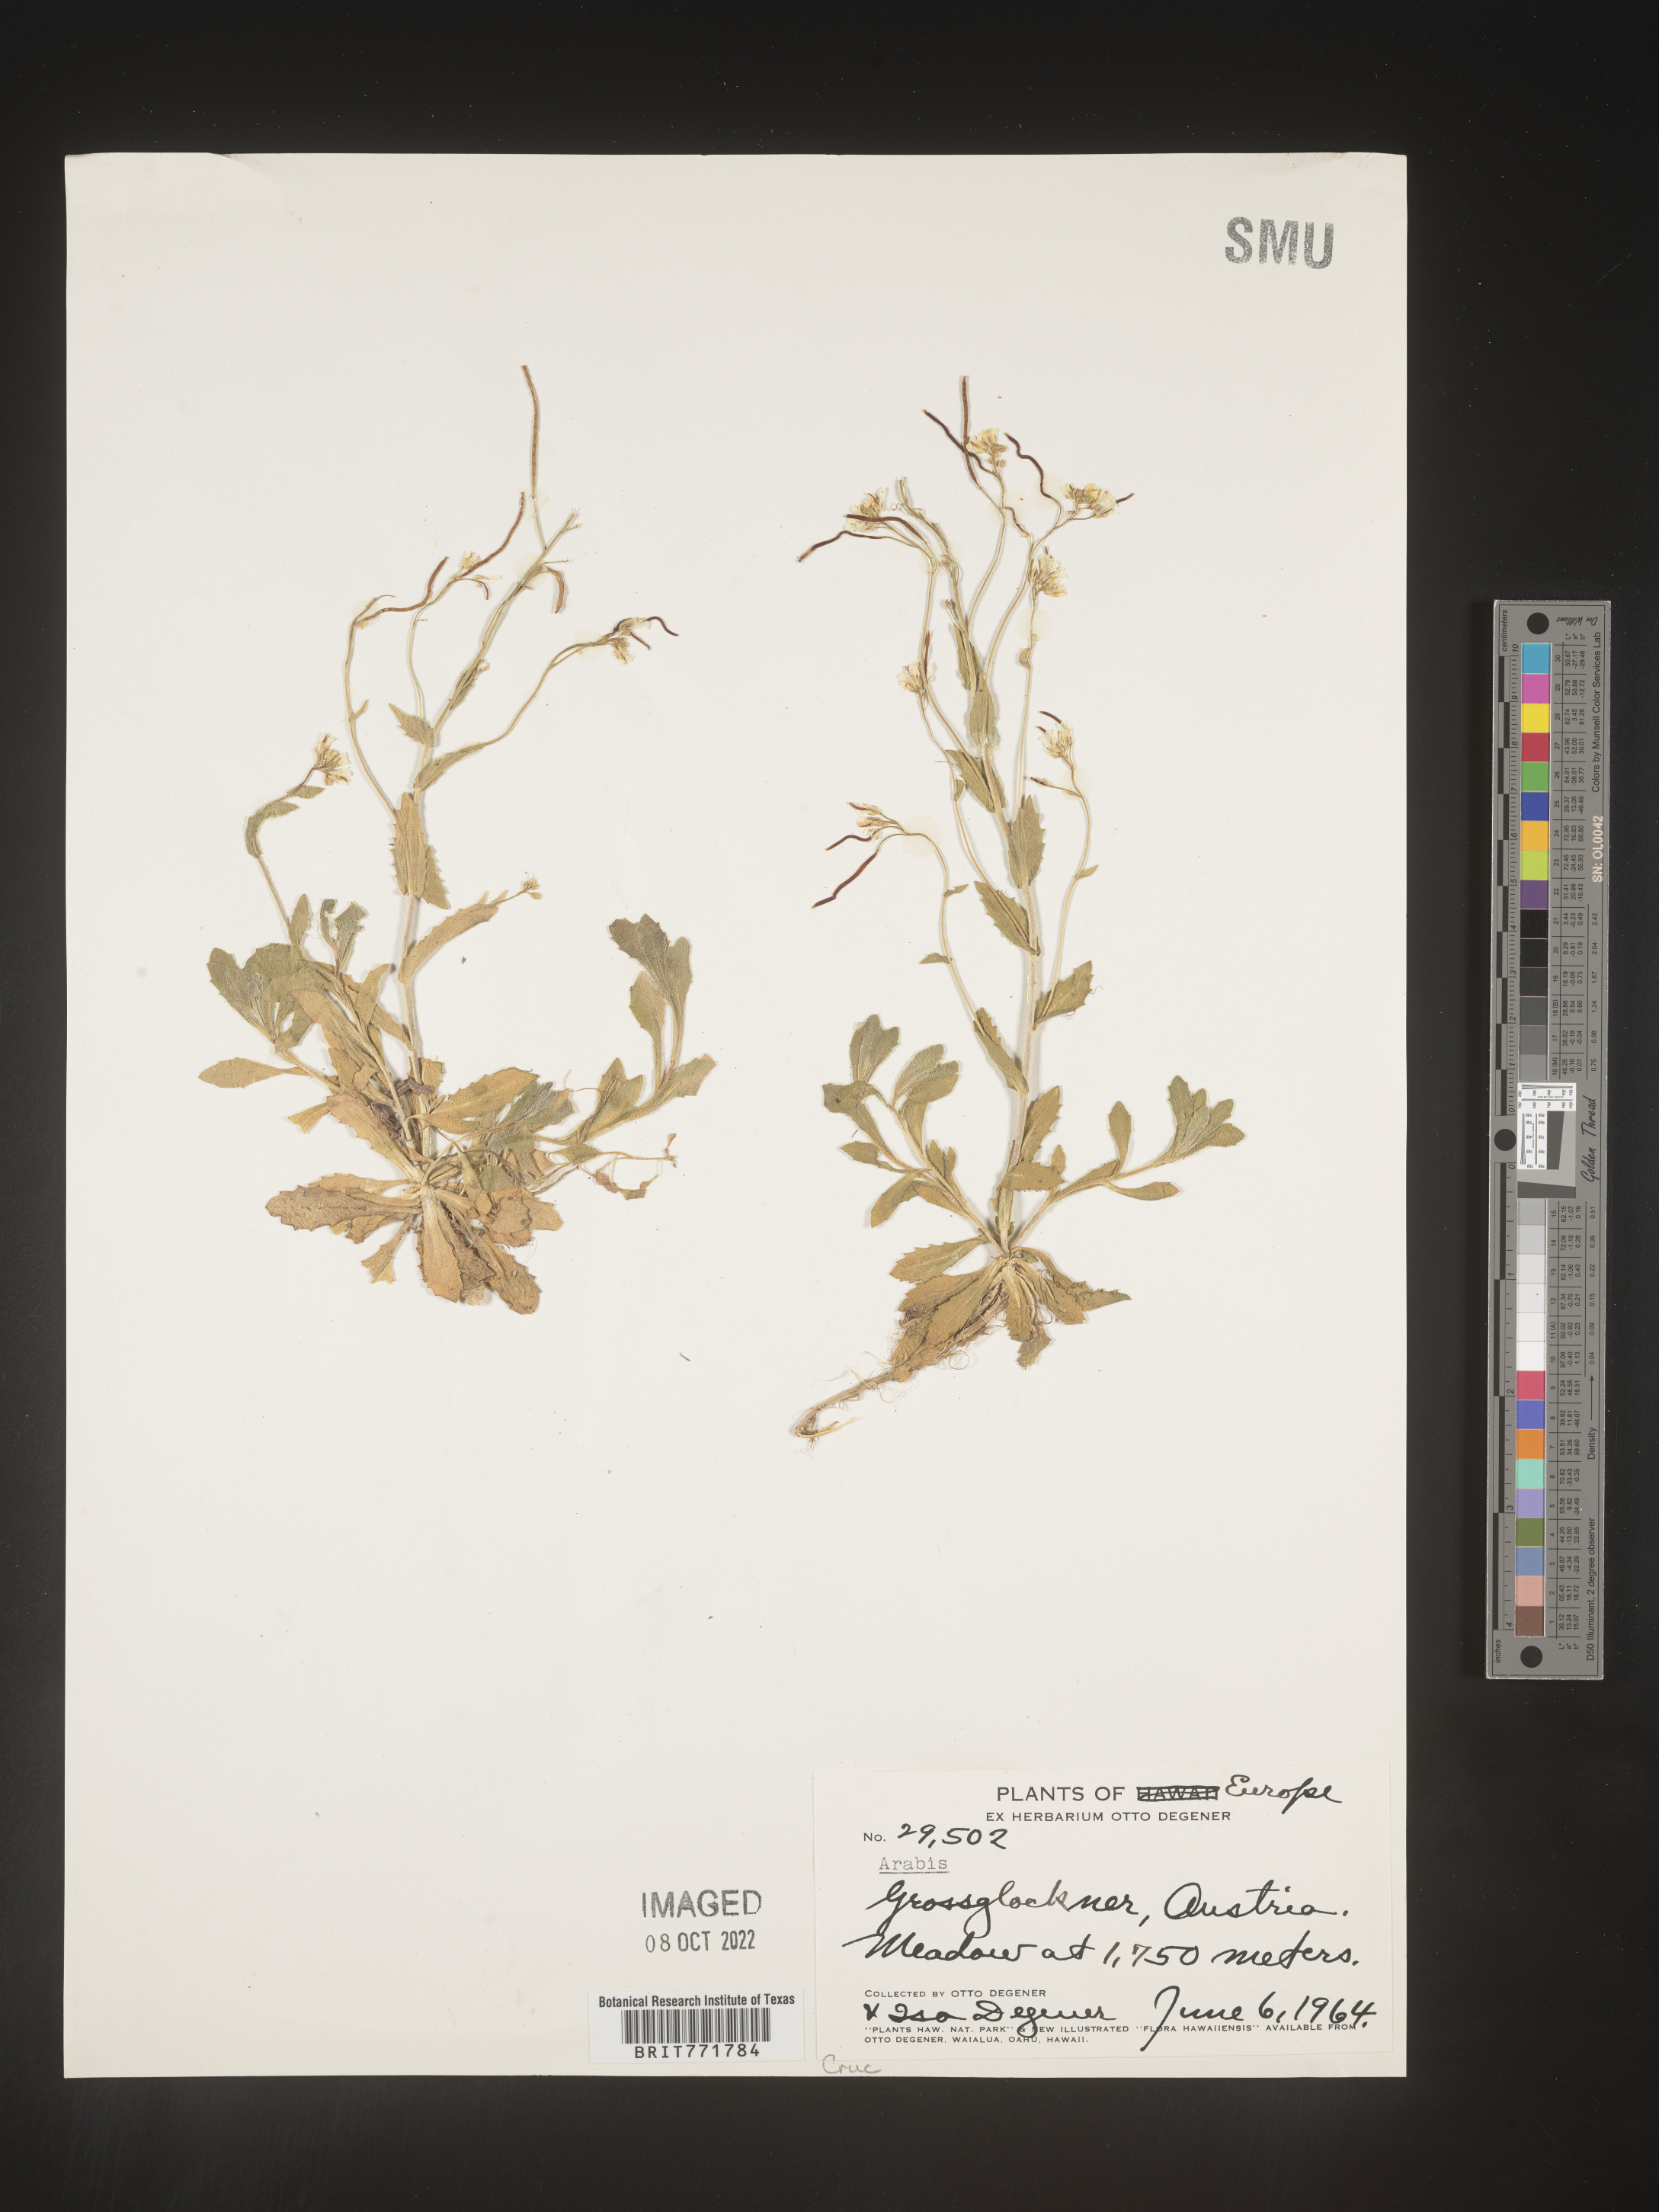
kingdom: Plantae
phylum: Tracheophyta
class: Magnoliopsida
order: Brassicales
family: Brassicaceae
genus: Arabis
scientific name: Arabis
